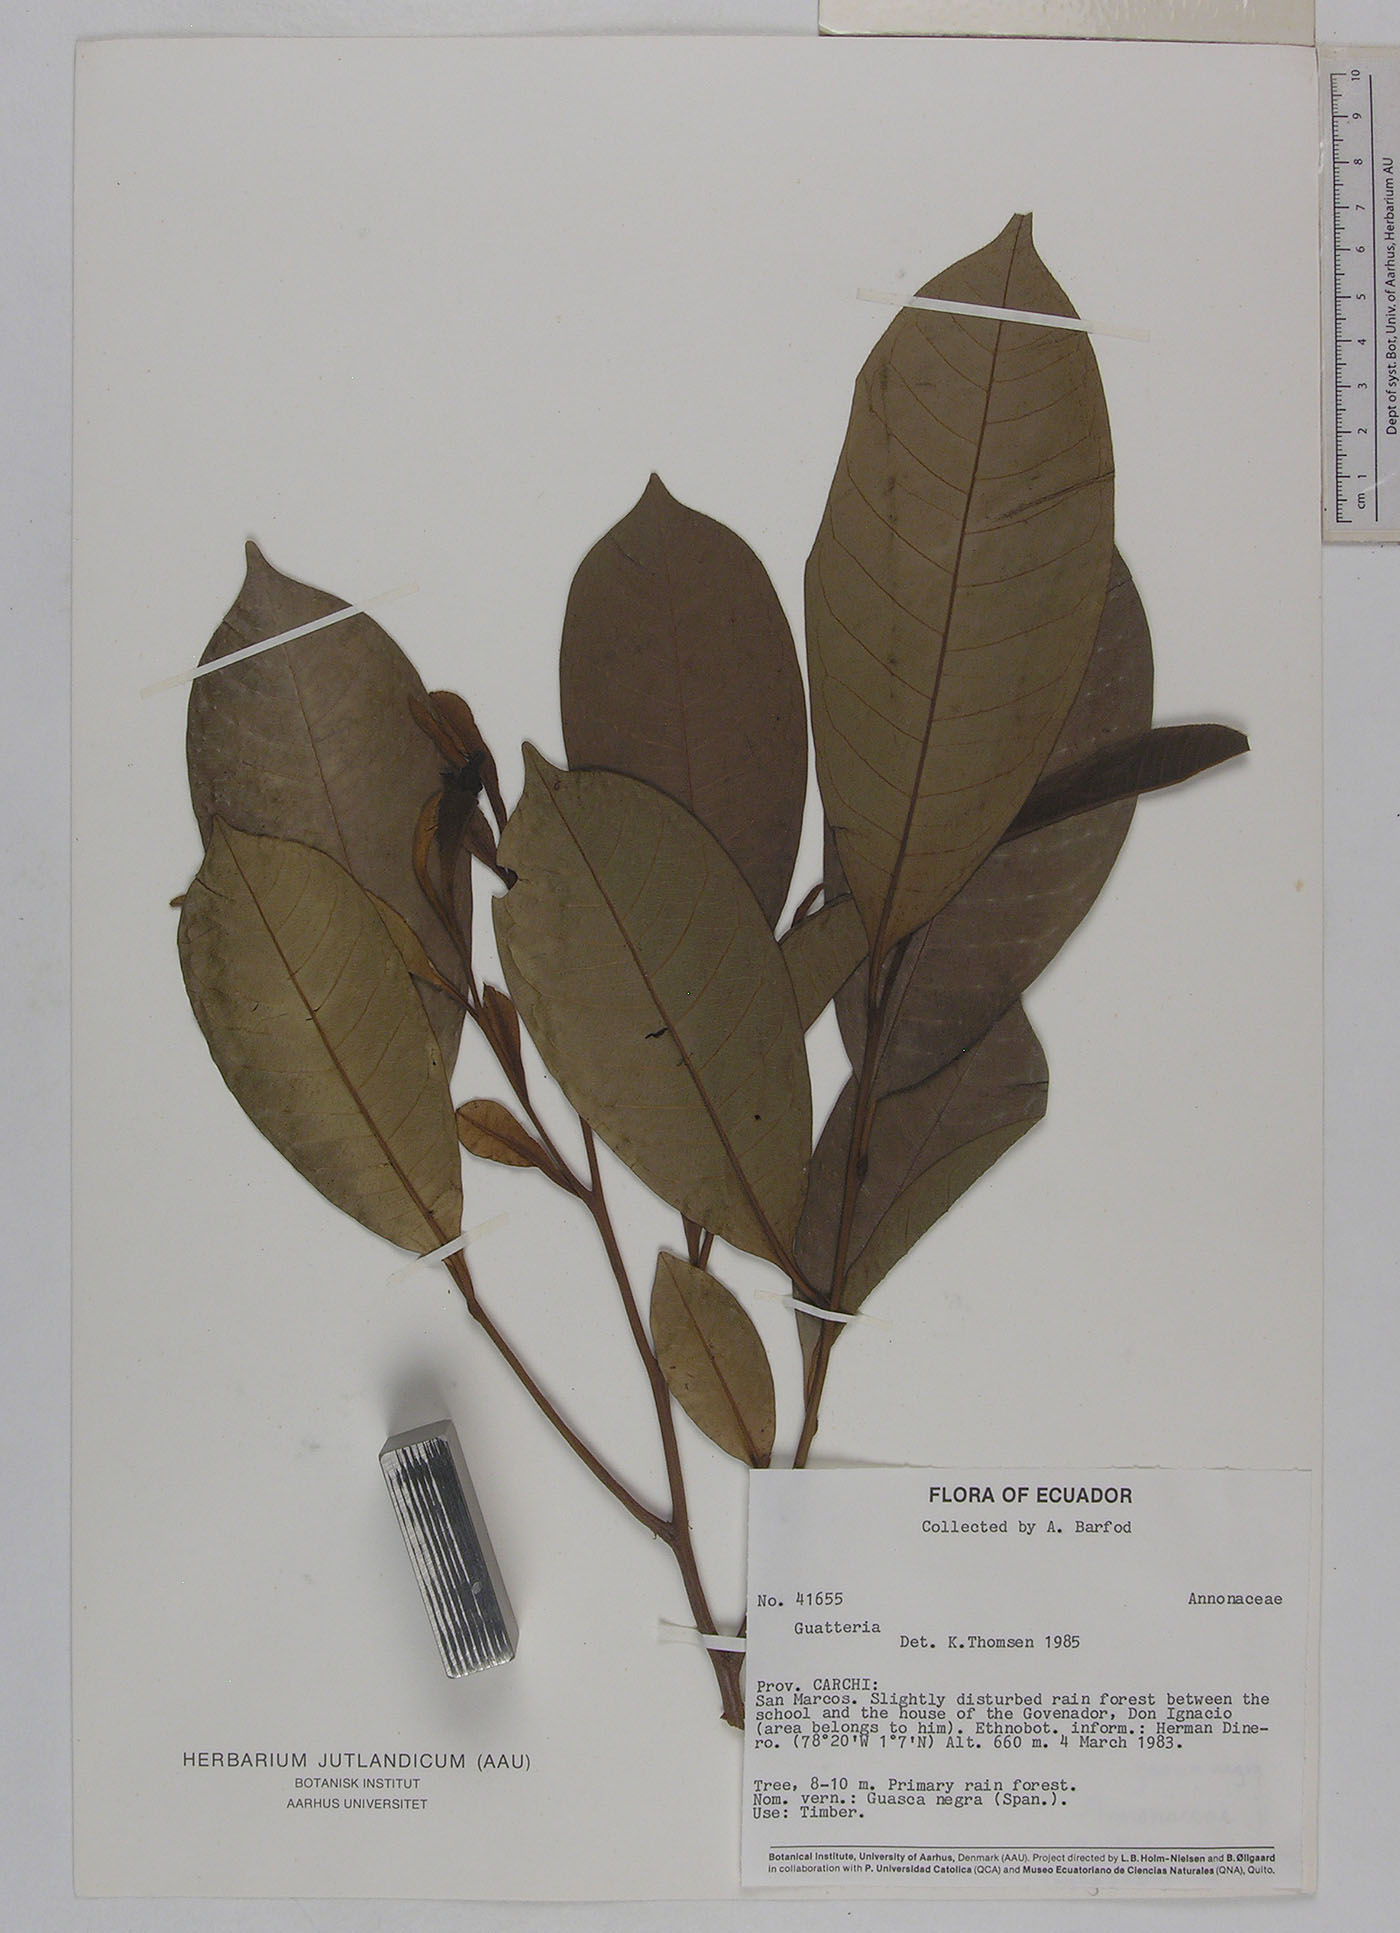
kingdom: Plantae
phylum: Tracheophyta
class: Magnoliopsida
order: Magnoliales
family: Annonaceae
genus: Guatteria
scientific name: Guatteria
